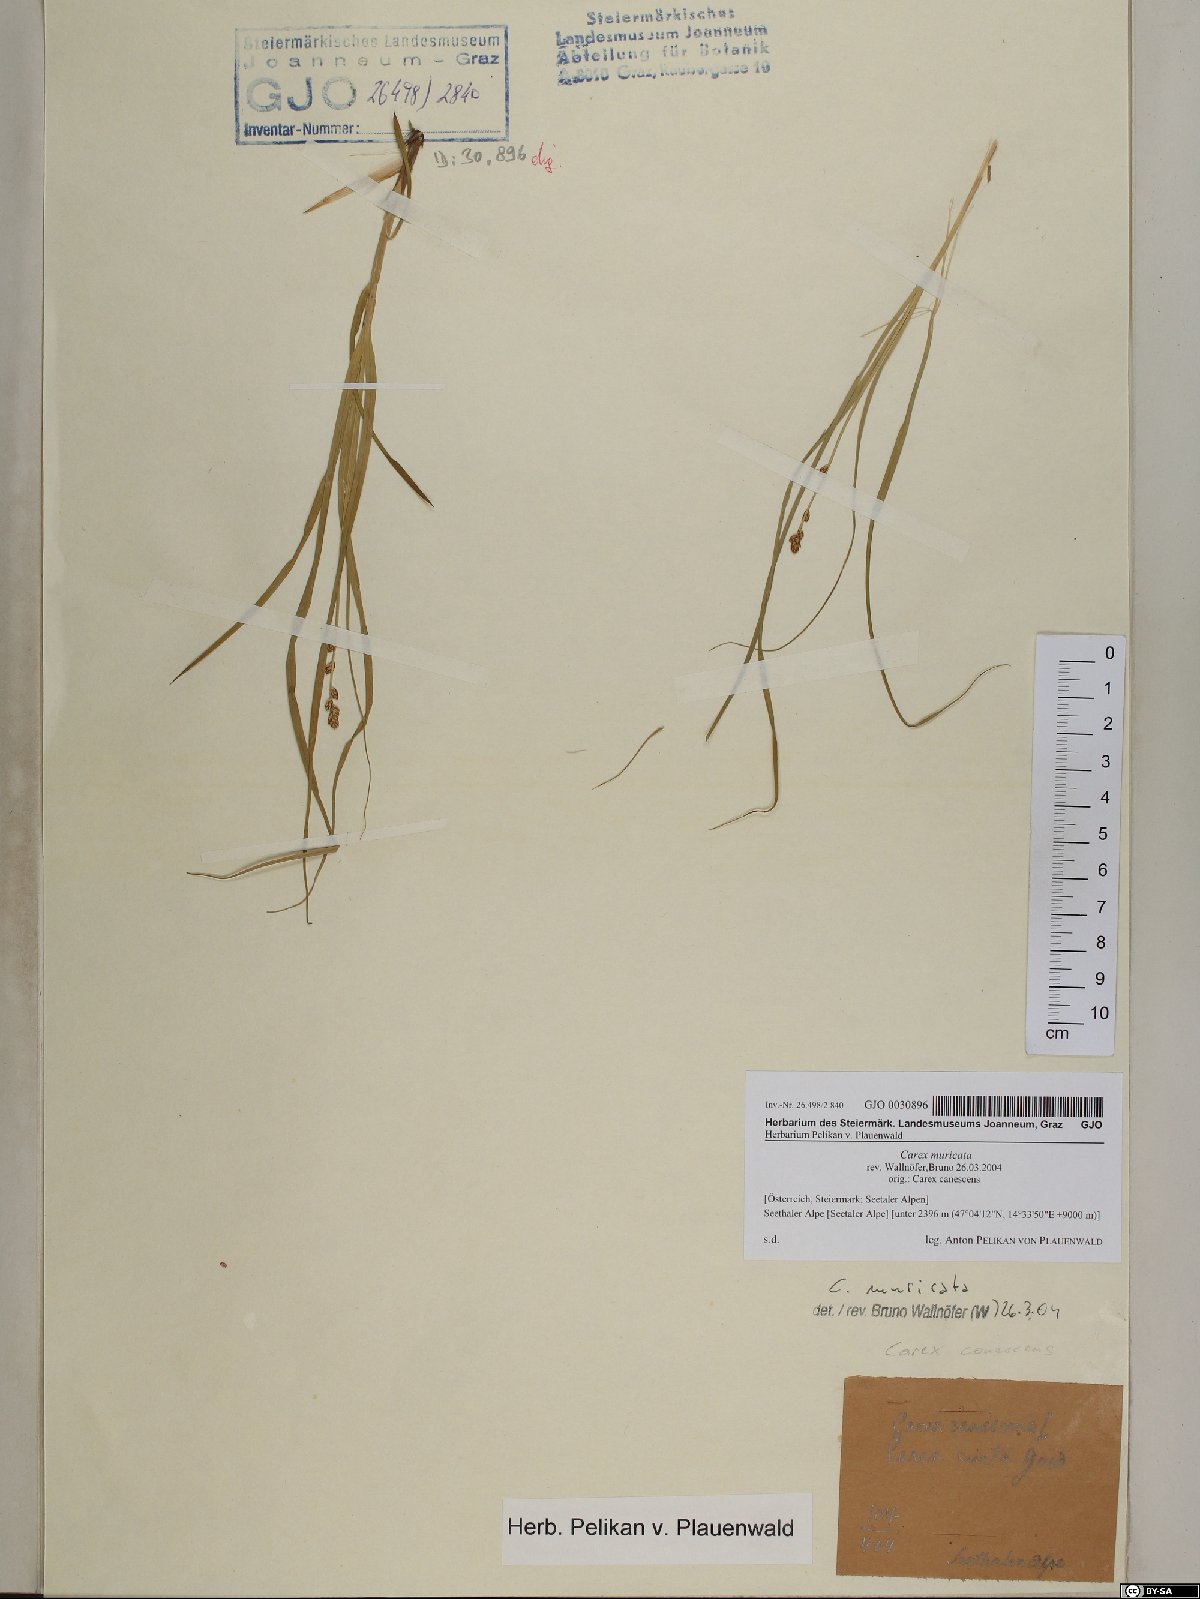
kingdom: Plantae
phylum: Tracheophyta
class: Liliopsida
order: Poales
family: Cyperaceae
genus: Carex
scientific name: Carex muricata
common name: Rough sedge
